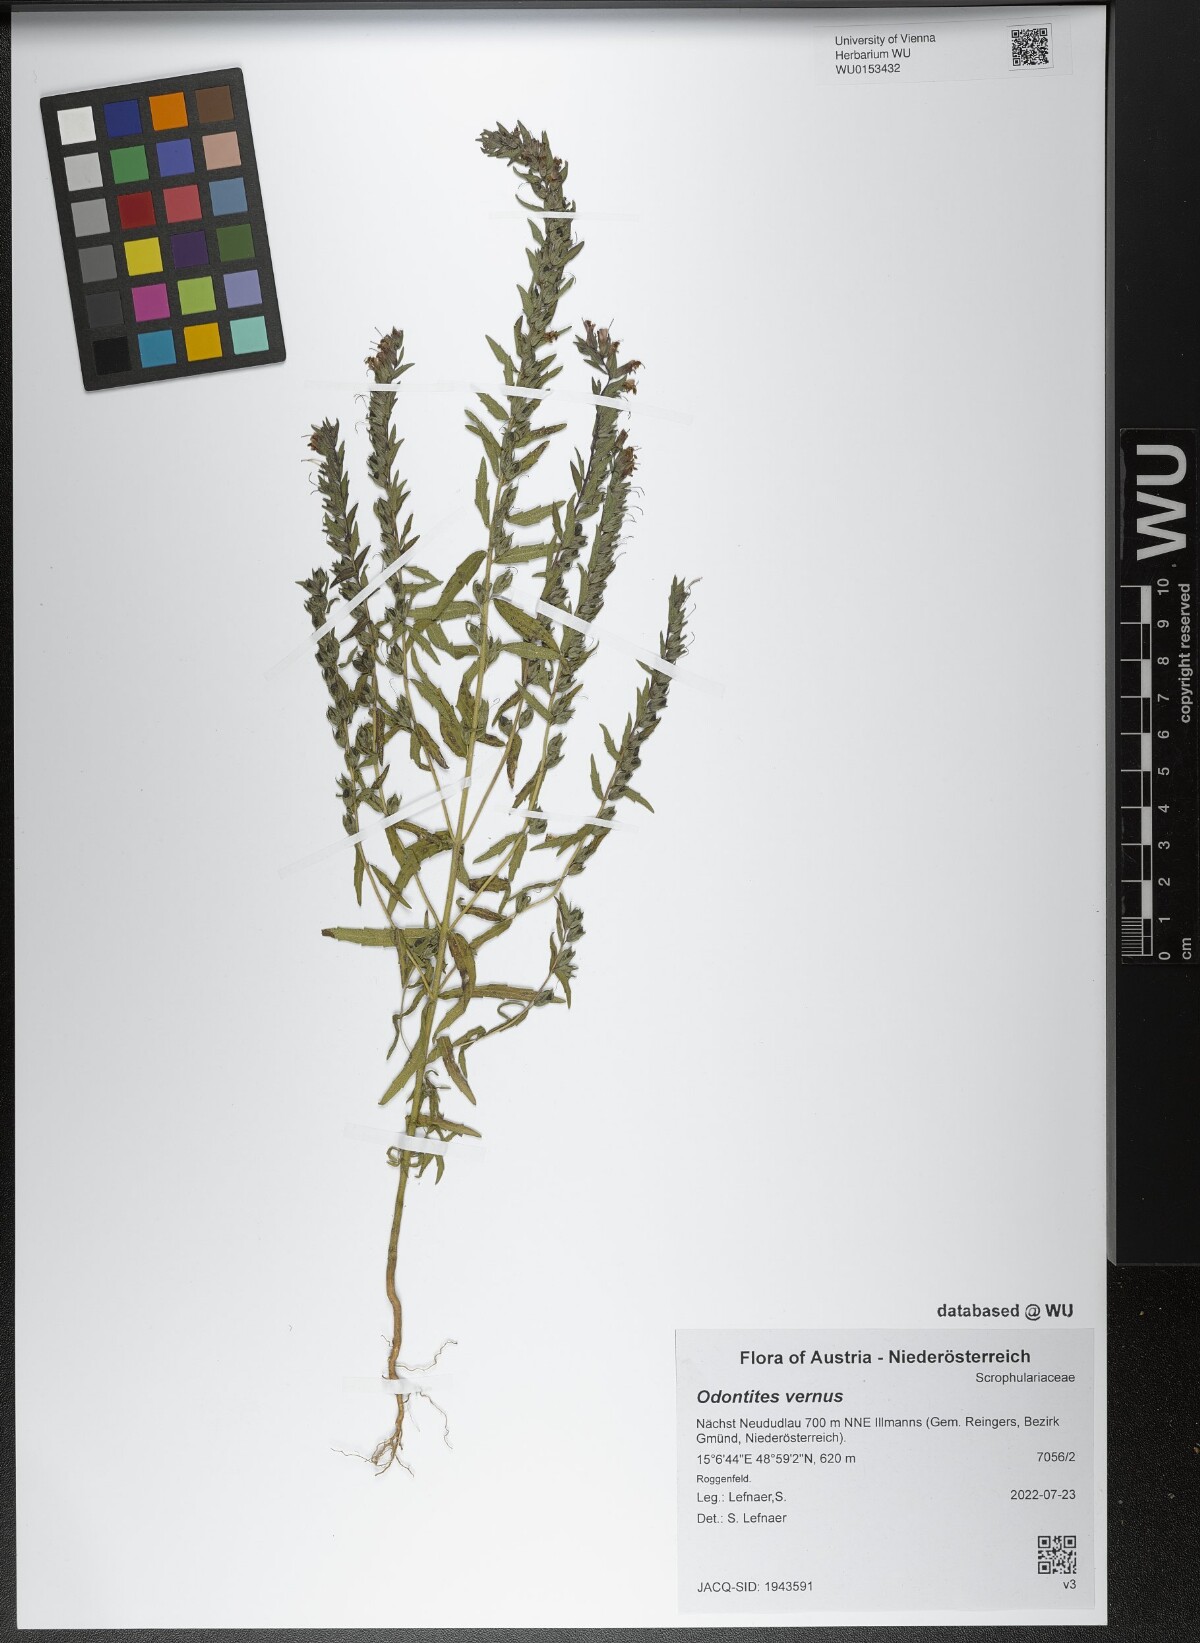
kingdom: Plantae
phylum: Tracheophyta
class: Magnoliopsida
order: Lamiales
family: Orobanchaceae
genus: Odontites
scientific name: Odontites vernus
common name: Red bartsia
